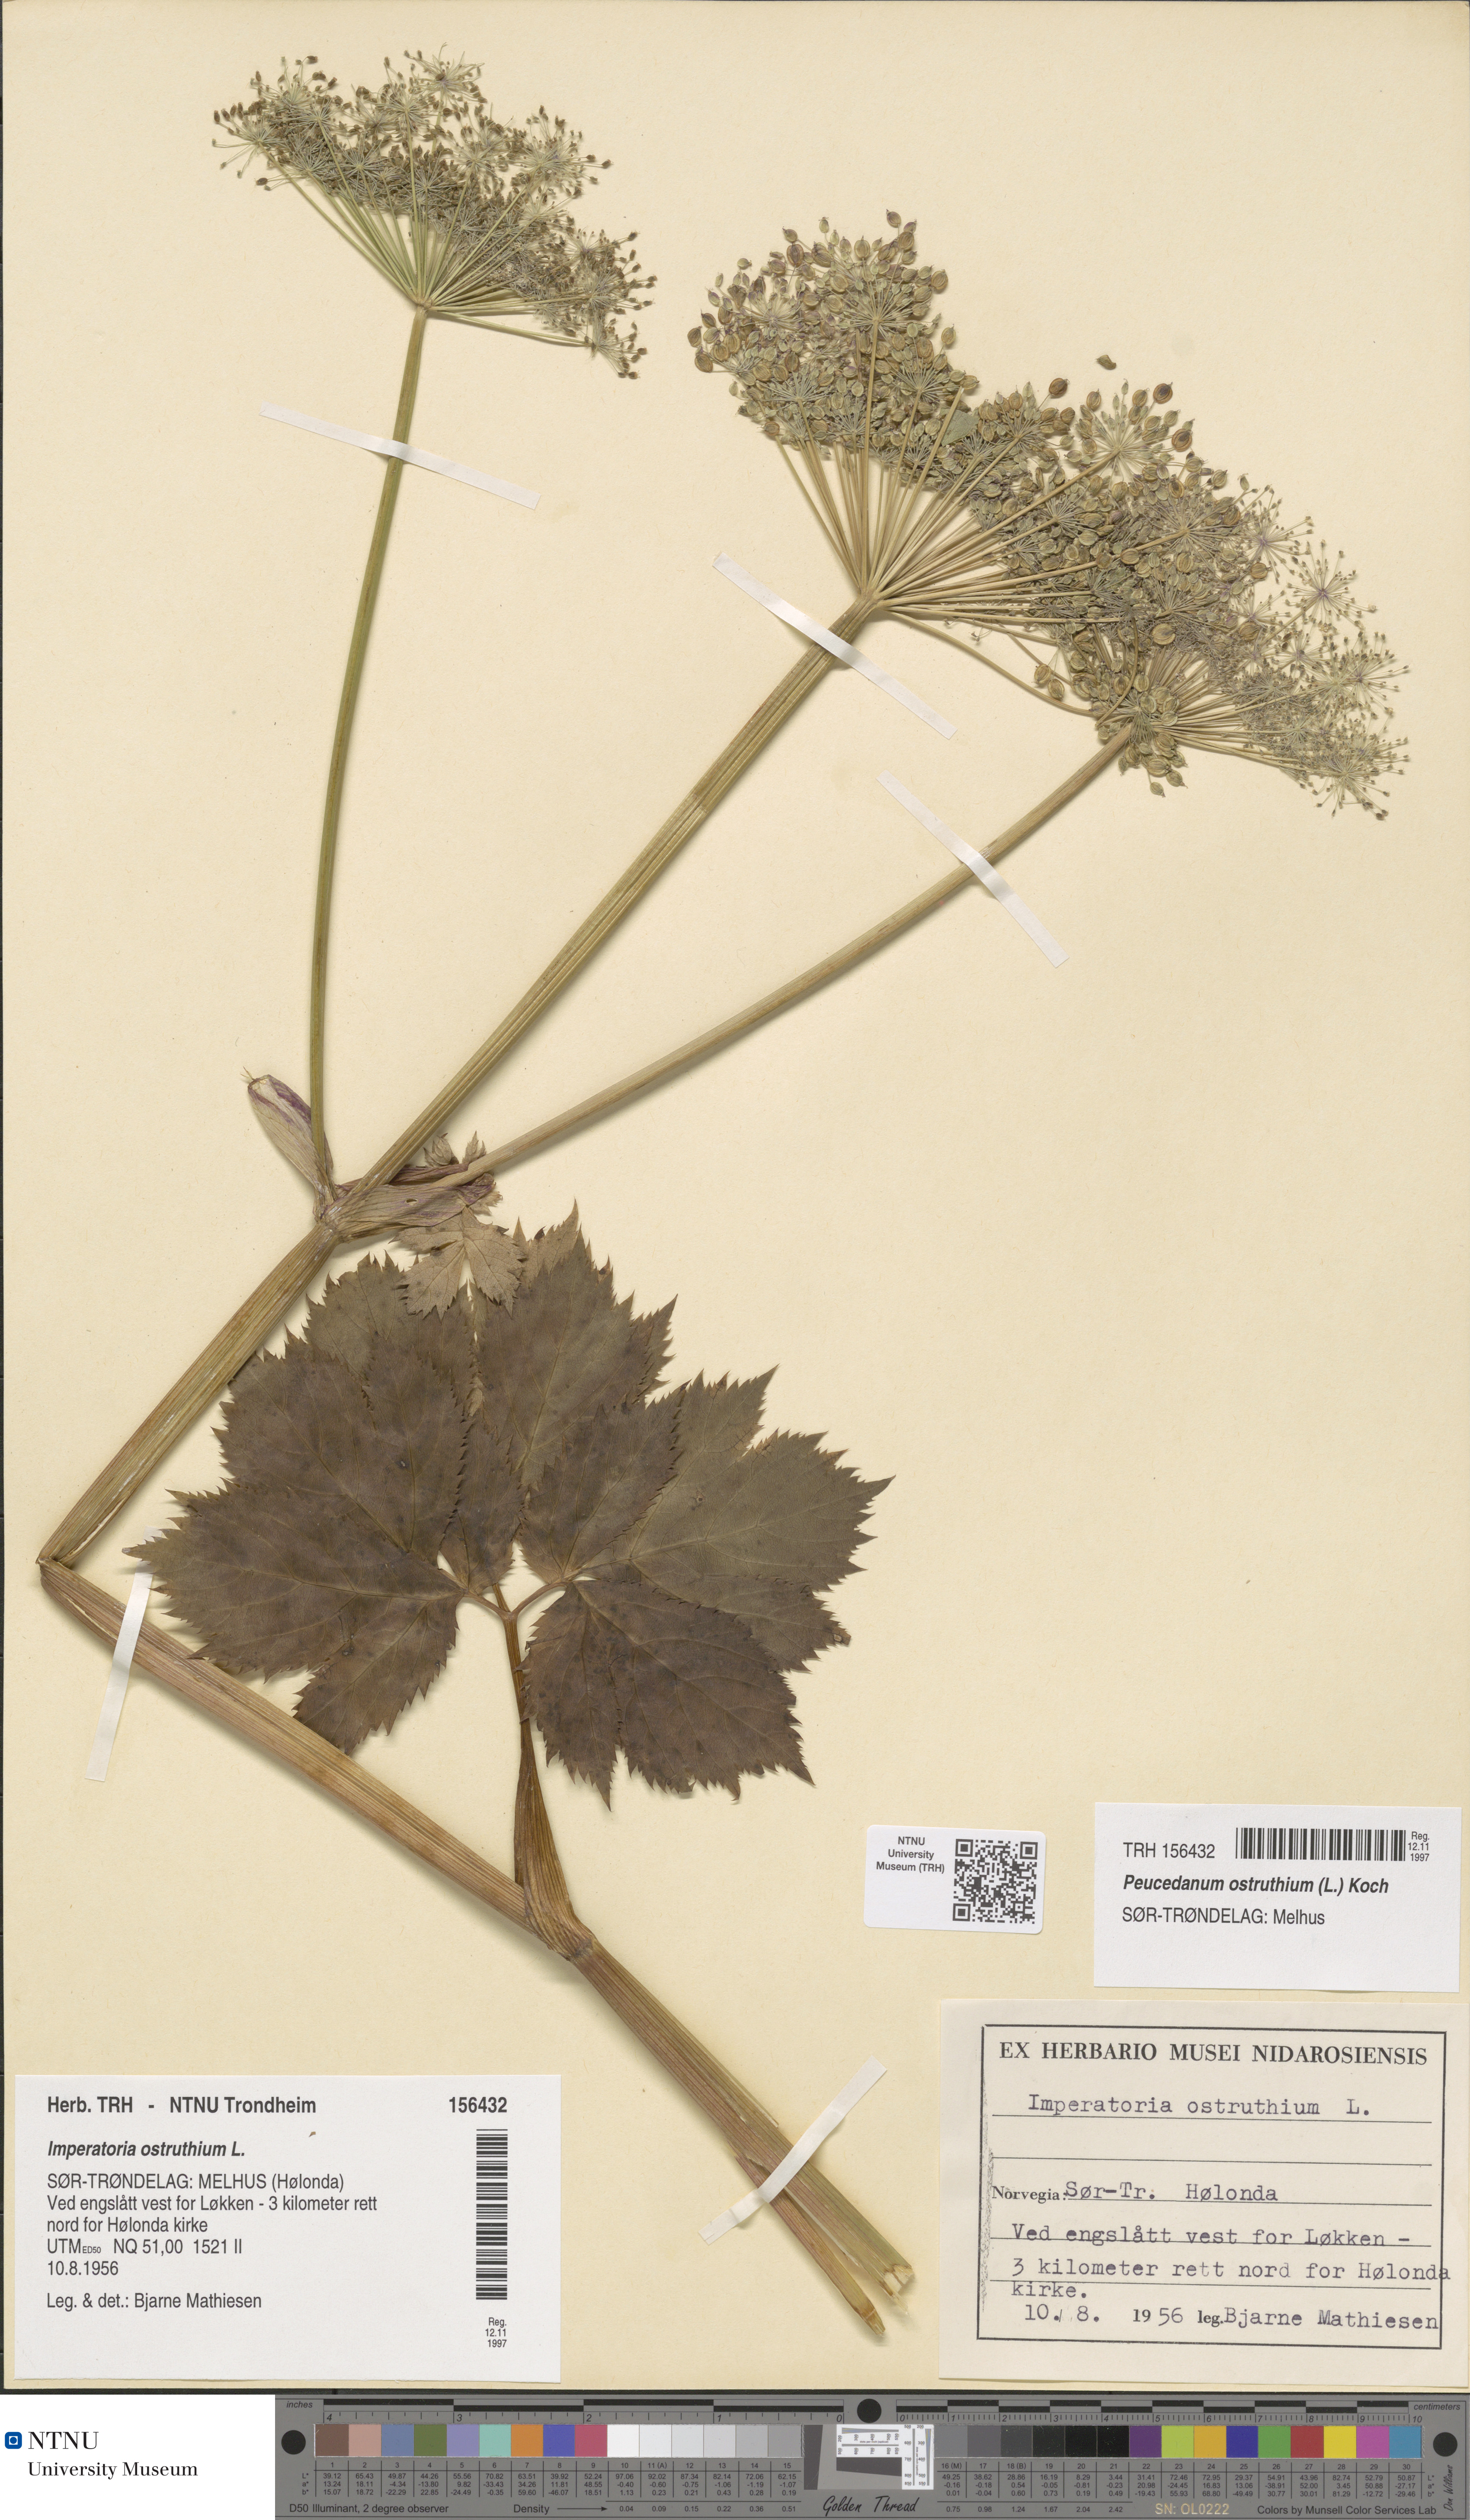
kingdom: Plantae
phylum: Tracheophyta
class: Magnoliopsida
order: Apiales
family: Apiaceae
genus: Imperatoria
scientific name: Imperatoria ostruthium
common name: Masterwort
